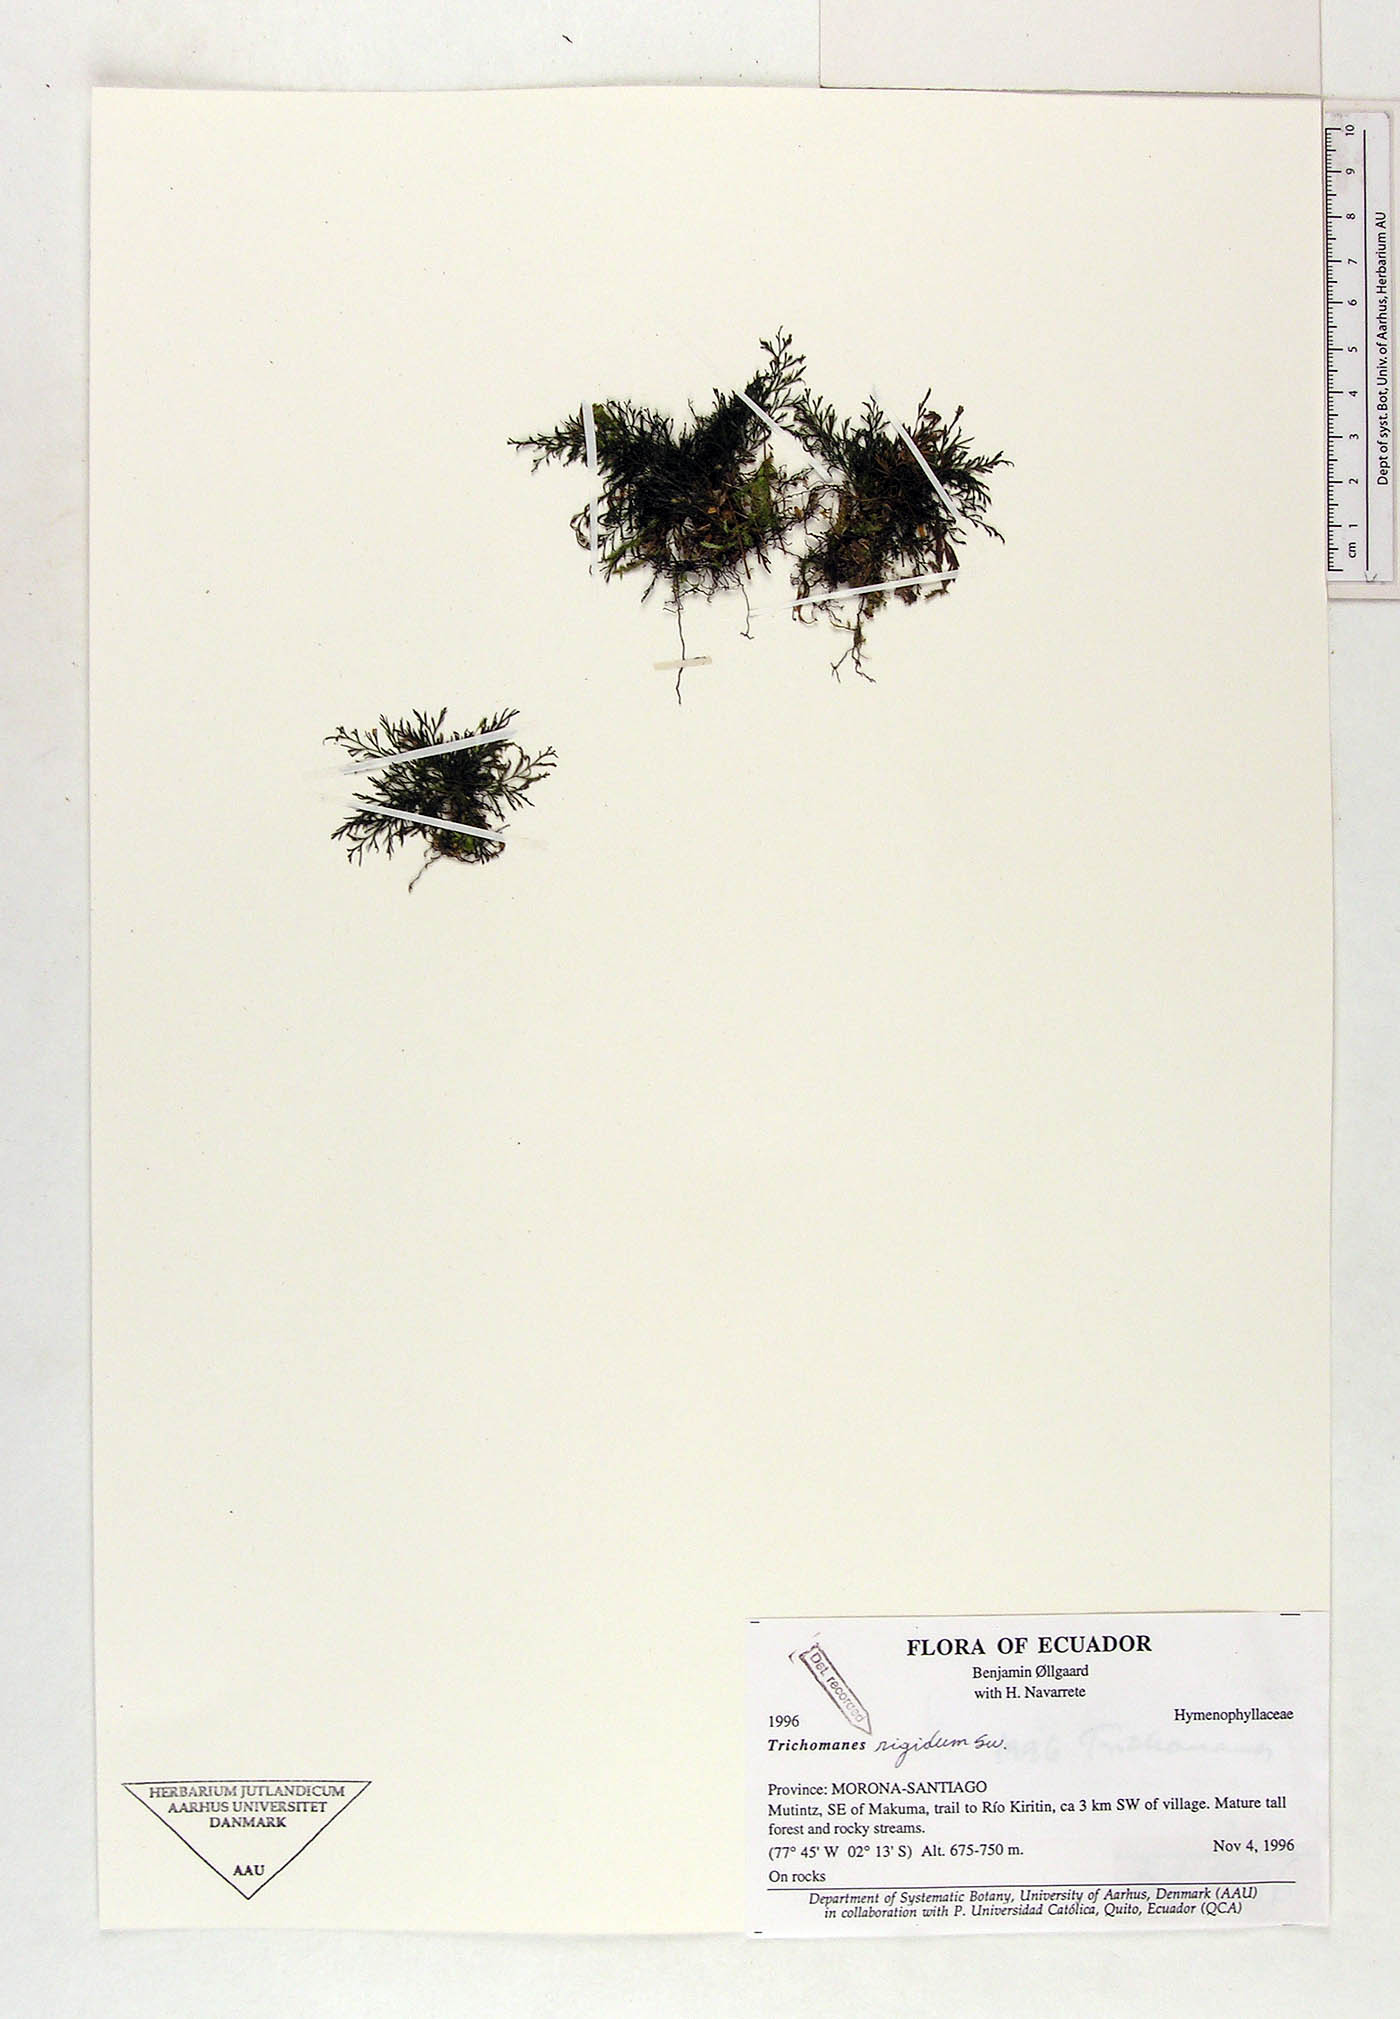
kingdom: Plantae
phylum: Tracheophyta
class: Polypodiopsida
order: Hymenophyllales
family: Hymenophyllaceae
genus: Abrodictyum
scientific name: Abrodictyum rigidum
